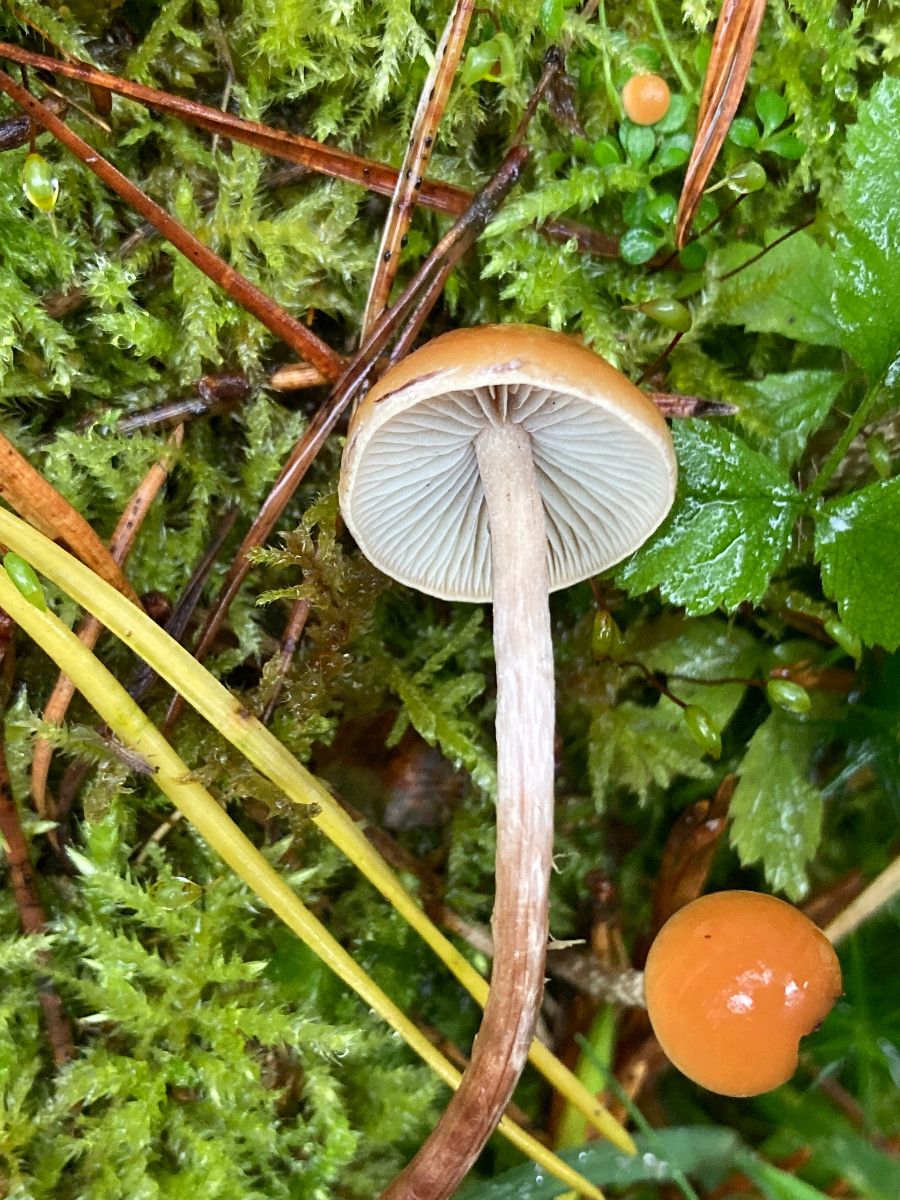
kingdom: Fungi
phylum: Basidiomycota
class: Agaricomycetes
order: Agaricales
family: Strophariaceae
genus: Hypholoma
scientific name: Hypholoma marginatum
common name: enlig svovlhat
